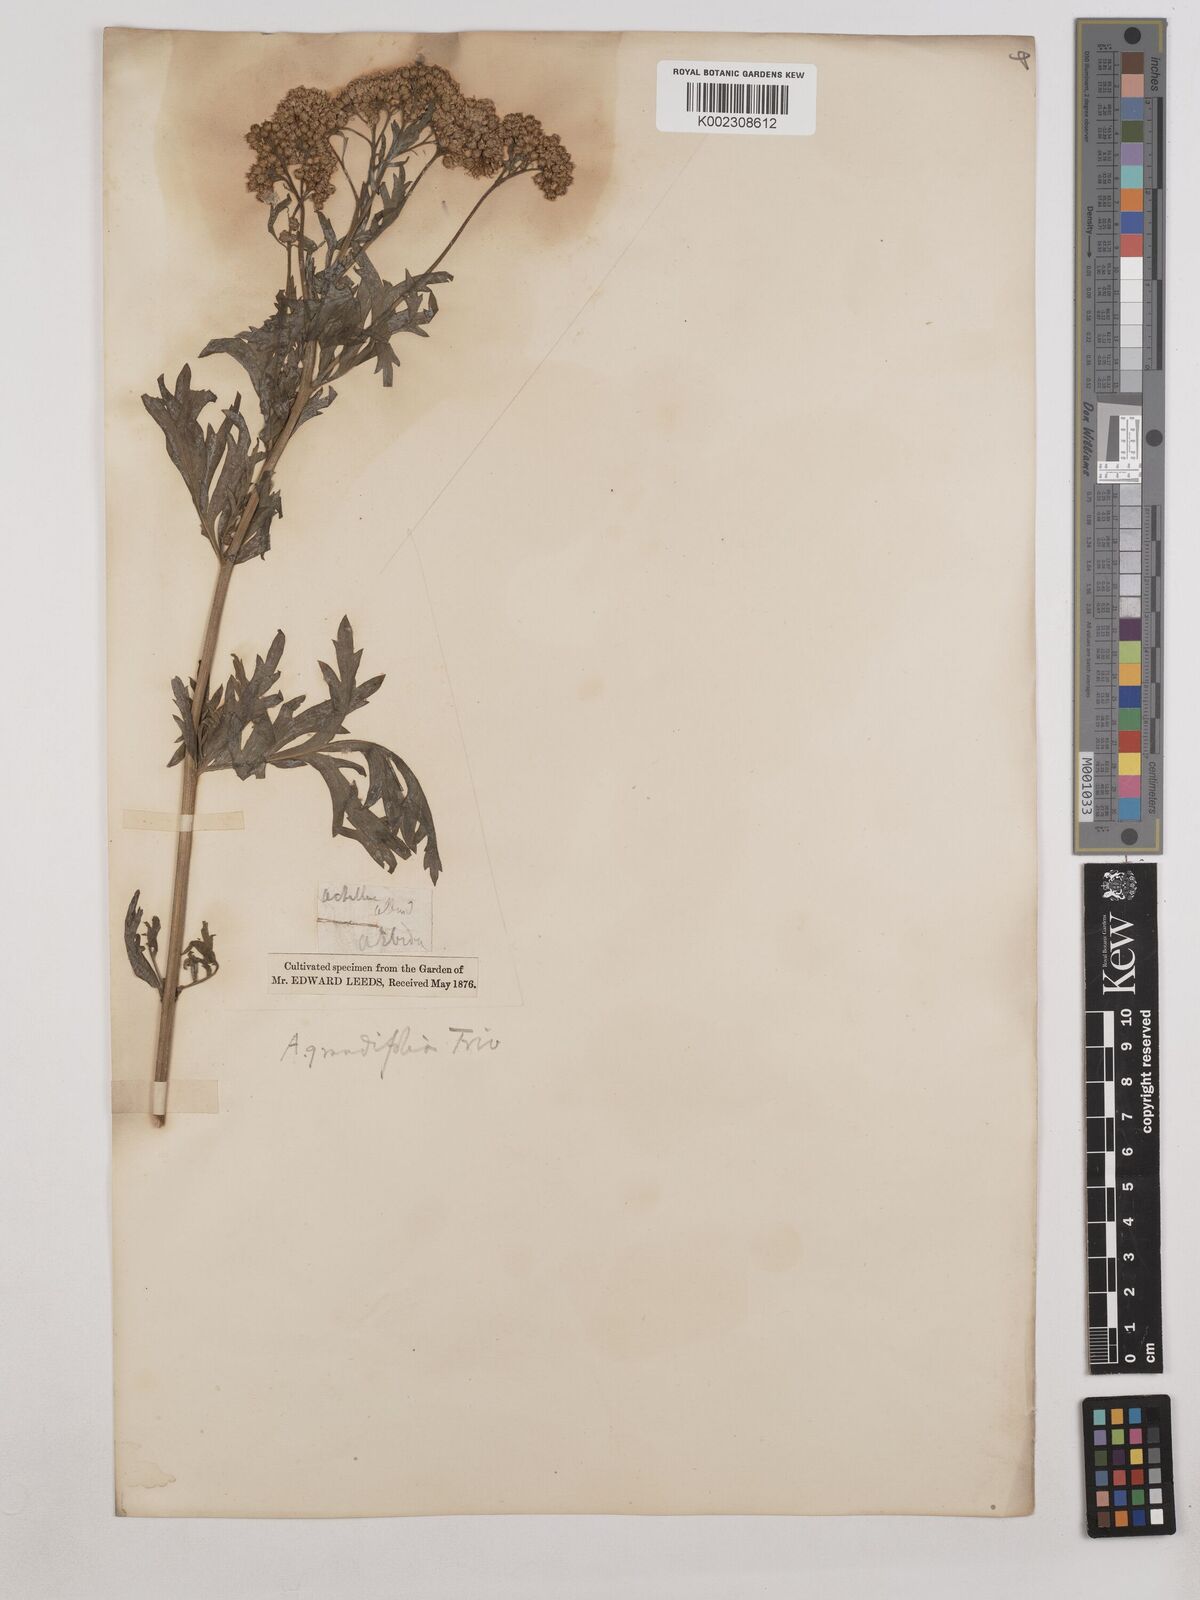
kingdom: Plantae
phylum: Tracheophyta
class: Magnoliopsida
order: Asterales
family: Asteraceae
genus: Achillea
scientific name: Achillea grandifolia
